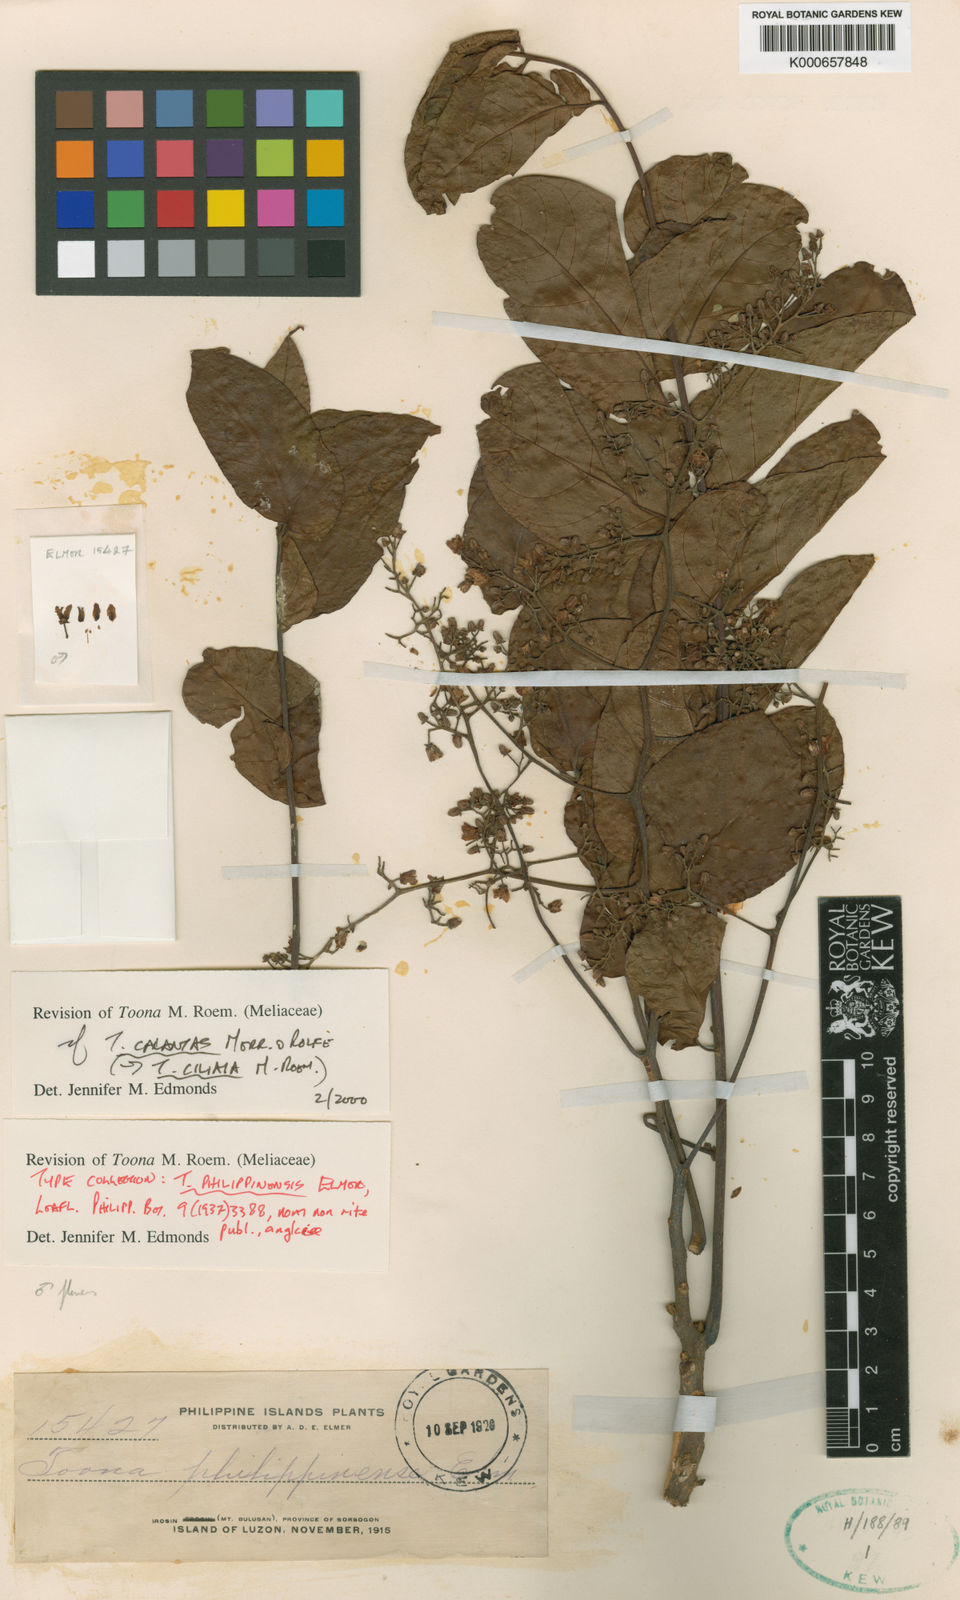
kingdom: Plantae
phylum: Tracheophyta
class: Magnoliopsida
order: Sapindales
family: Meliaceae
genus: Toona
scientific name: Toona calantas
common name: Philippine cedar
